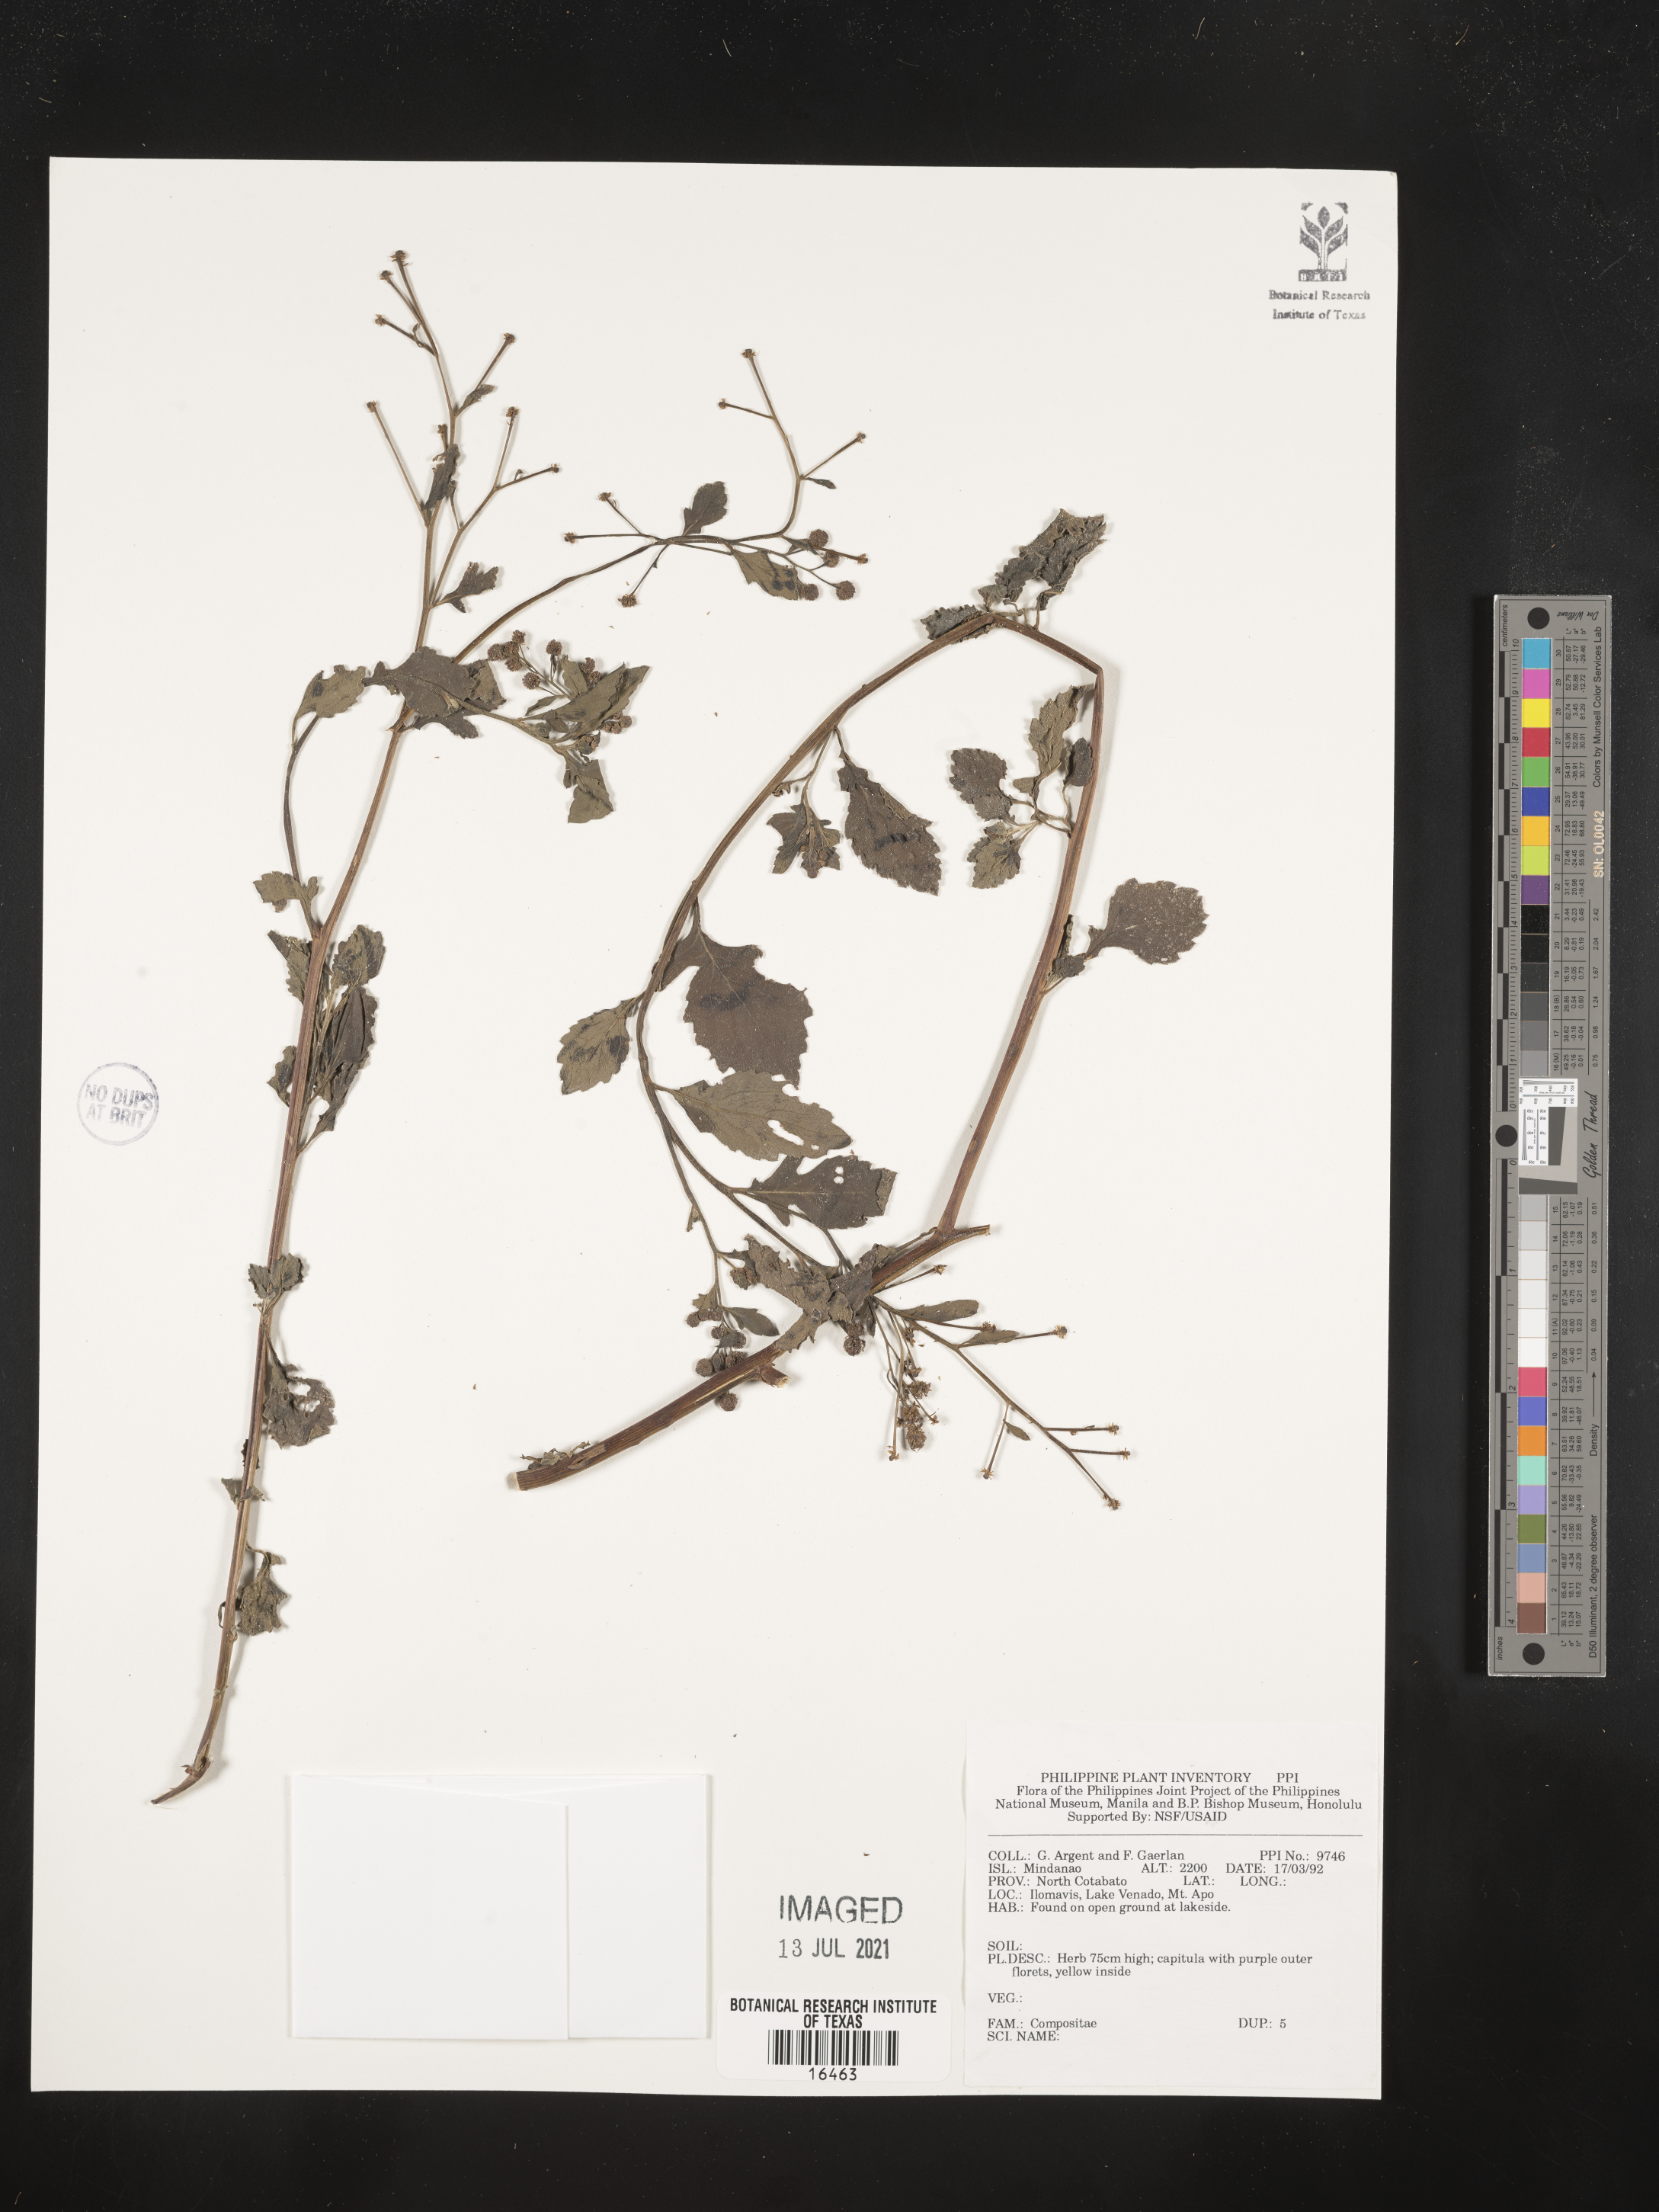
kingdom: Plantae
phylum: Tracheophyta
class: Magnoliopsida
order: Asterales
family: Asteraceae
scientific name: Asteraceae
